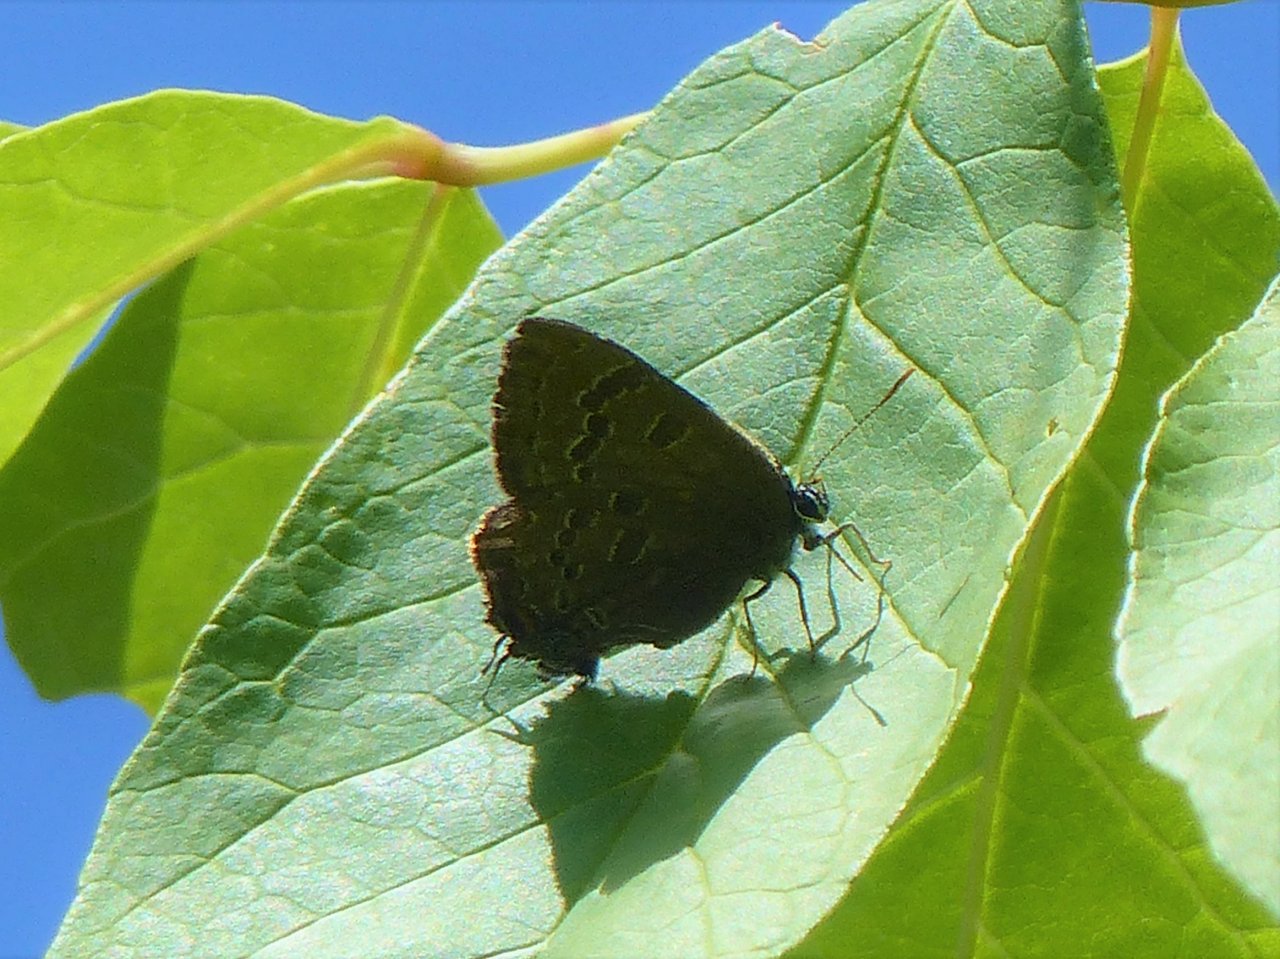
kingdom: Animalia
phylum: Arthropoda
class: Insecta
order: Lepidoptera
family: Lycaenidae
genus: Strymon
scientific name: Strymon caryaevorus
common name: Hickory Hairstreak
